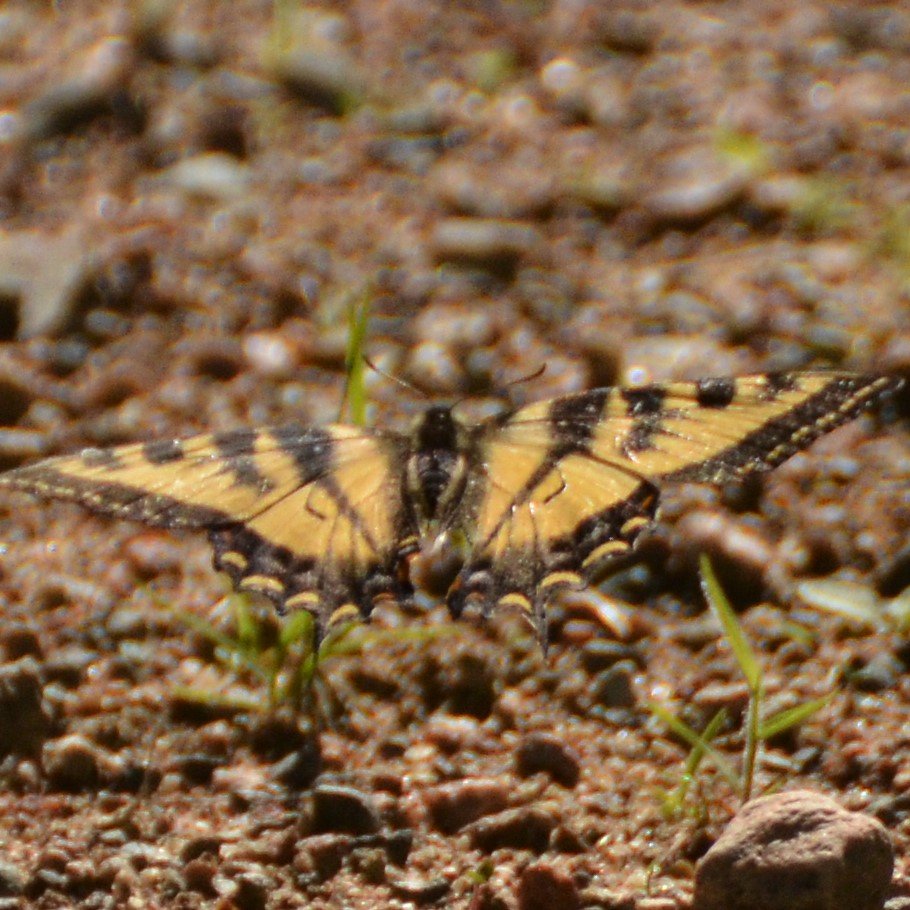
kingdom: Animalia
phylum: Arthropoda
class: Insecta
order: Lepidoptera
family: Papilionidae
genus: Pterourus
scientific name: Pterourus canadensis
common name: Canadian Tiger Swallowtail
